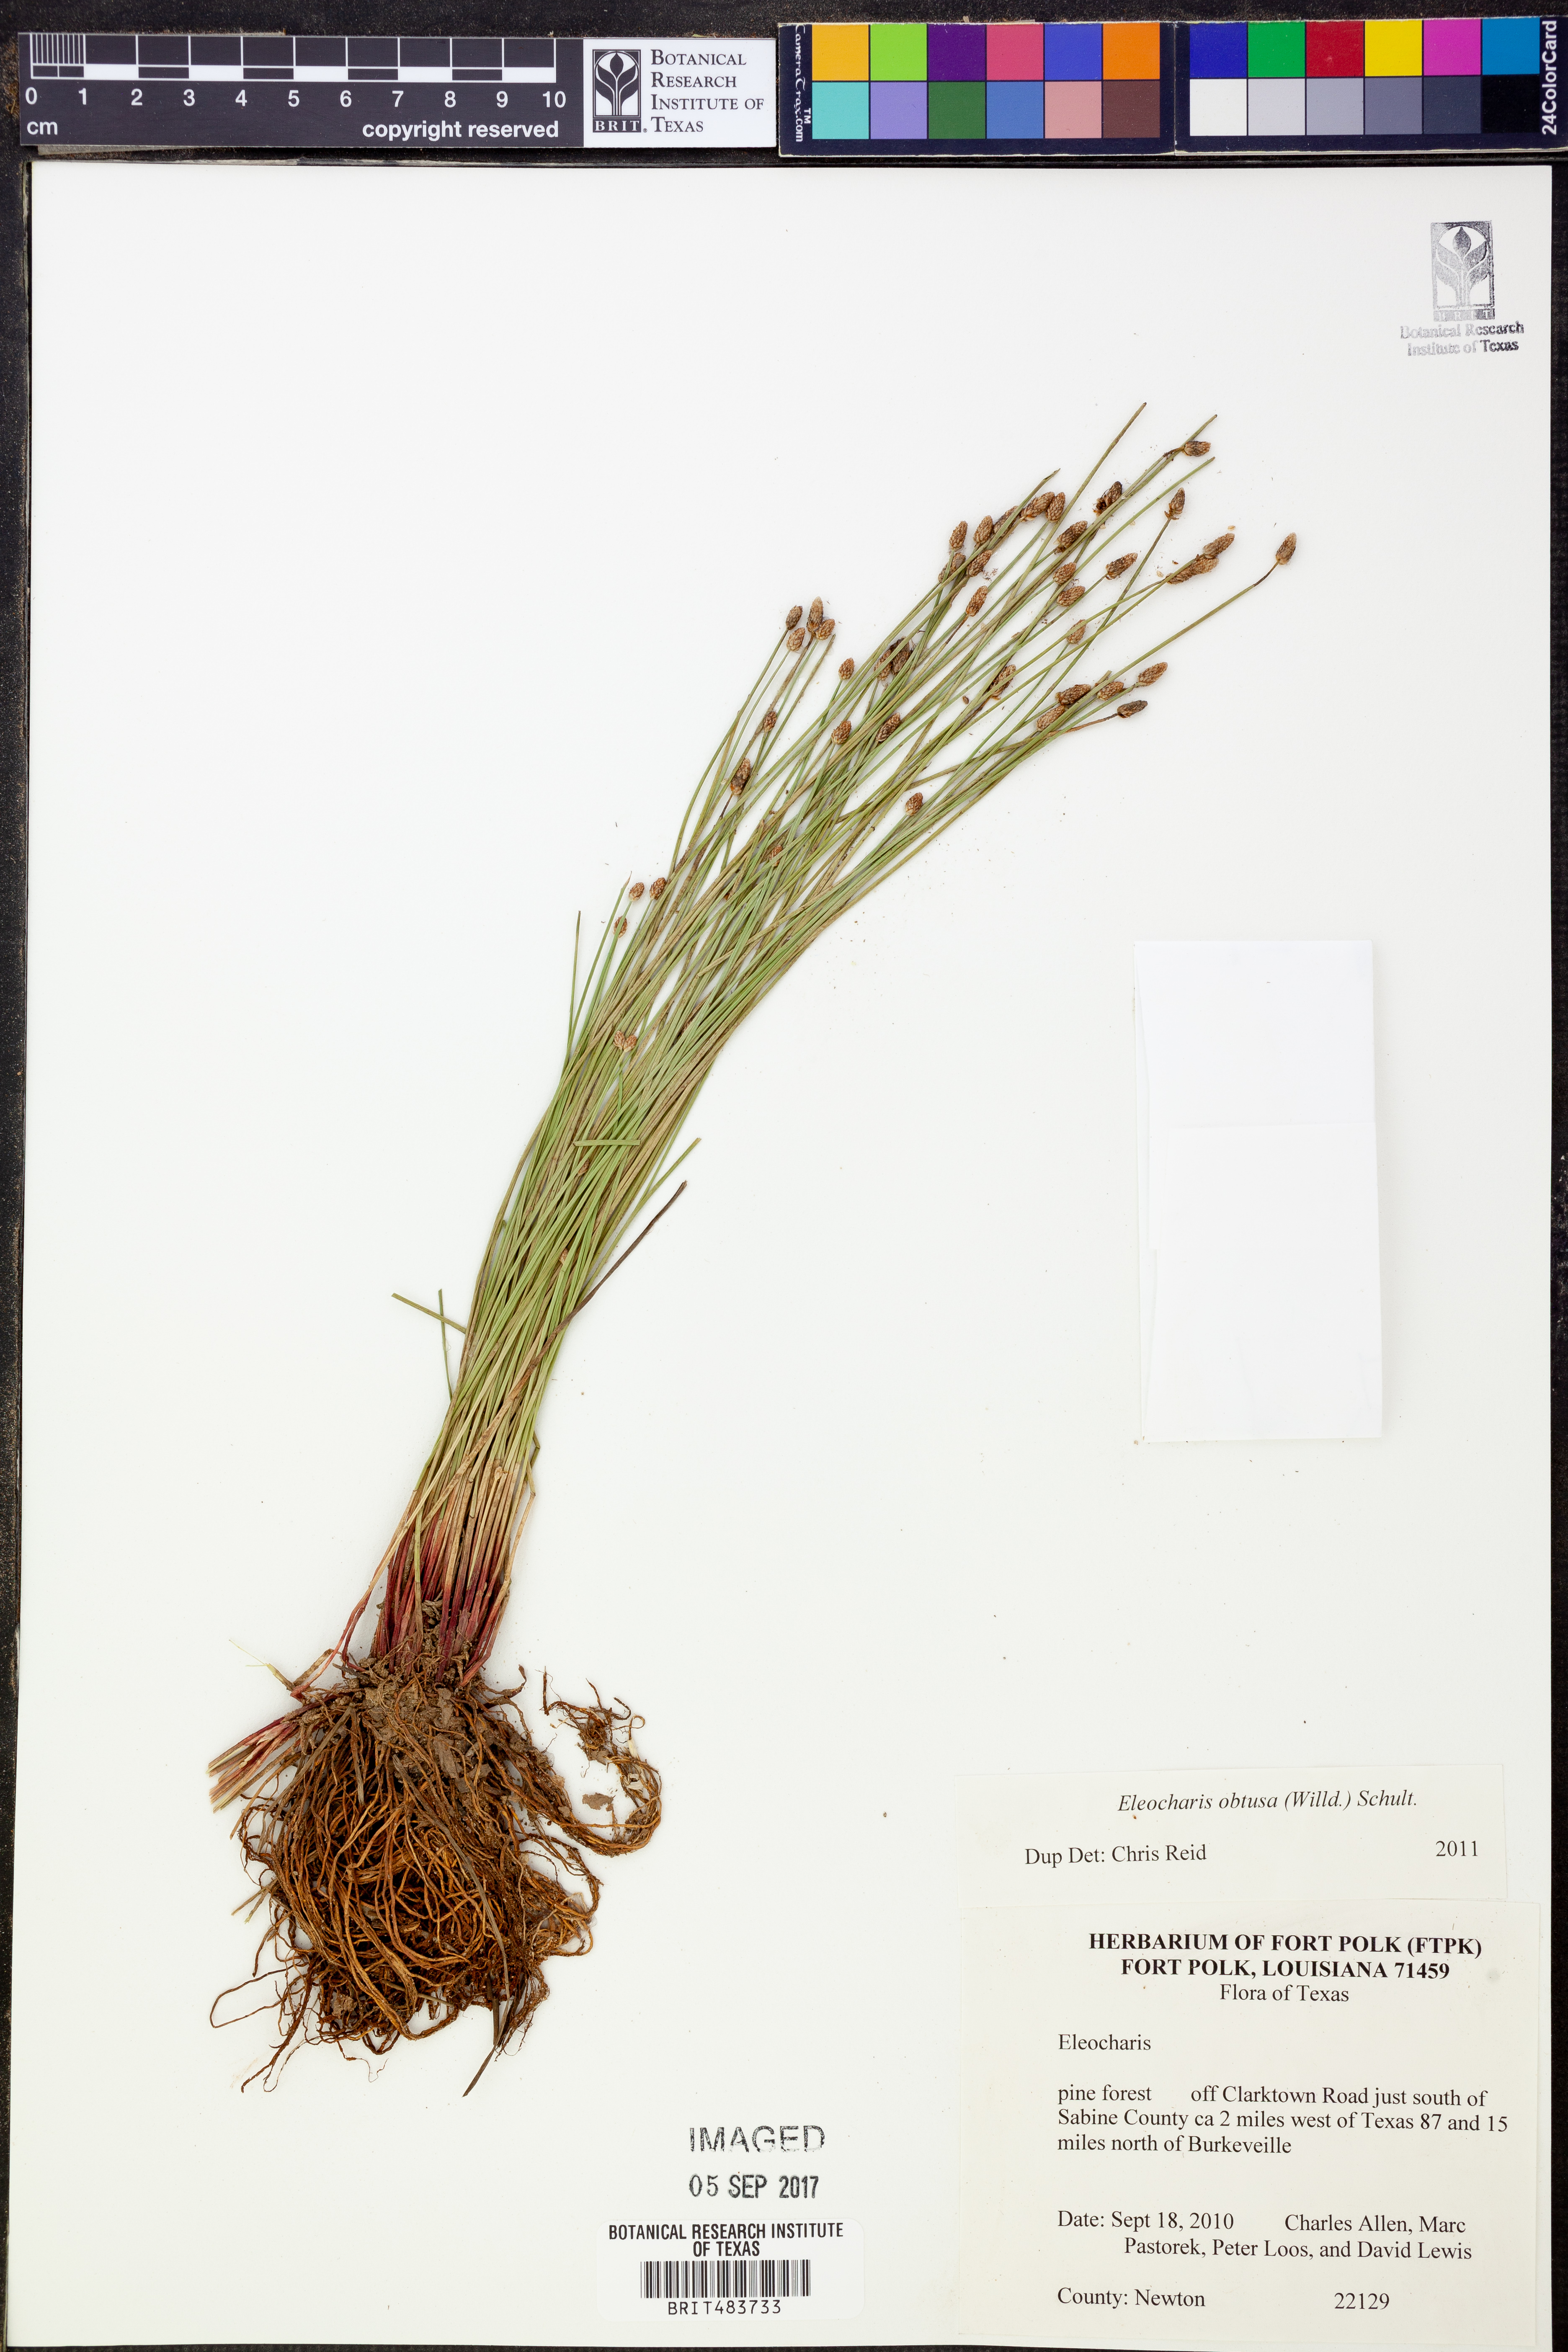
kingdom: Plantae
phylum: Tracheophyta
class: Liliopsida
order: Poales
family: Cyperaceae
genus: Eleocharis
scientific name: Eleocharis
